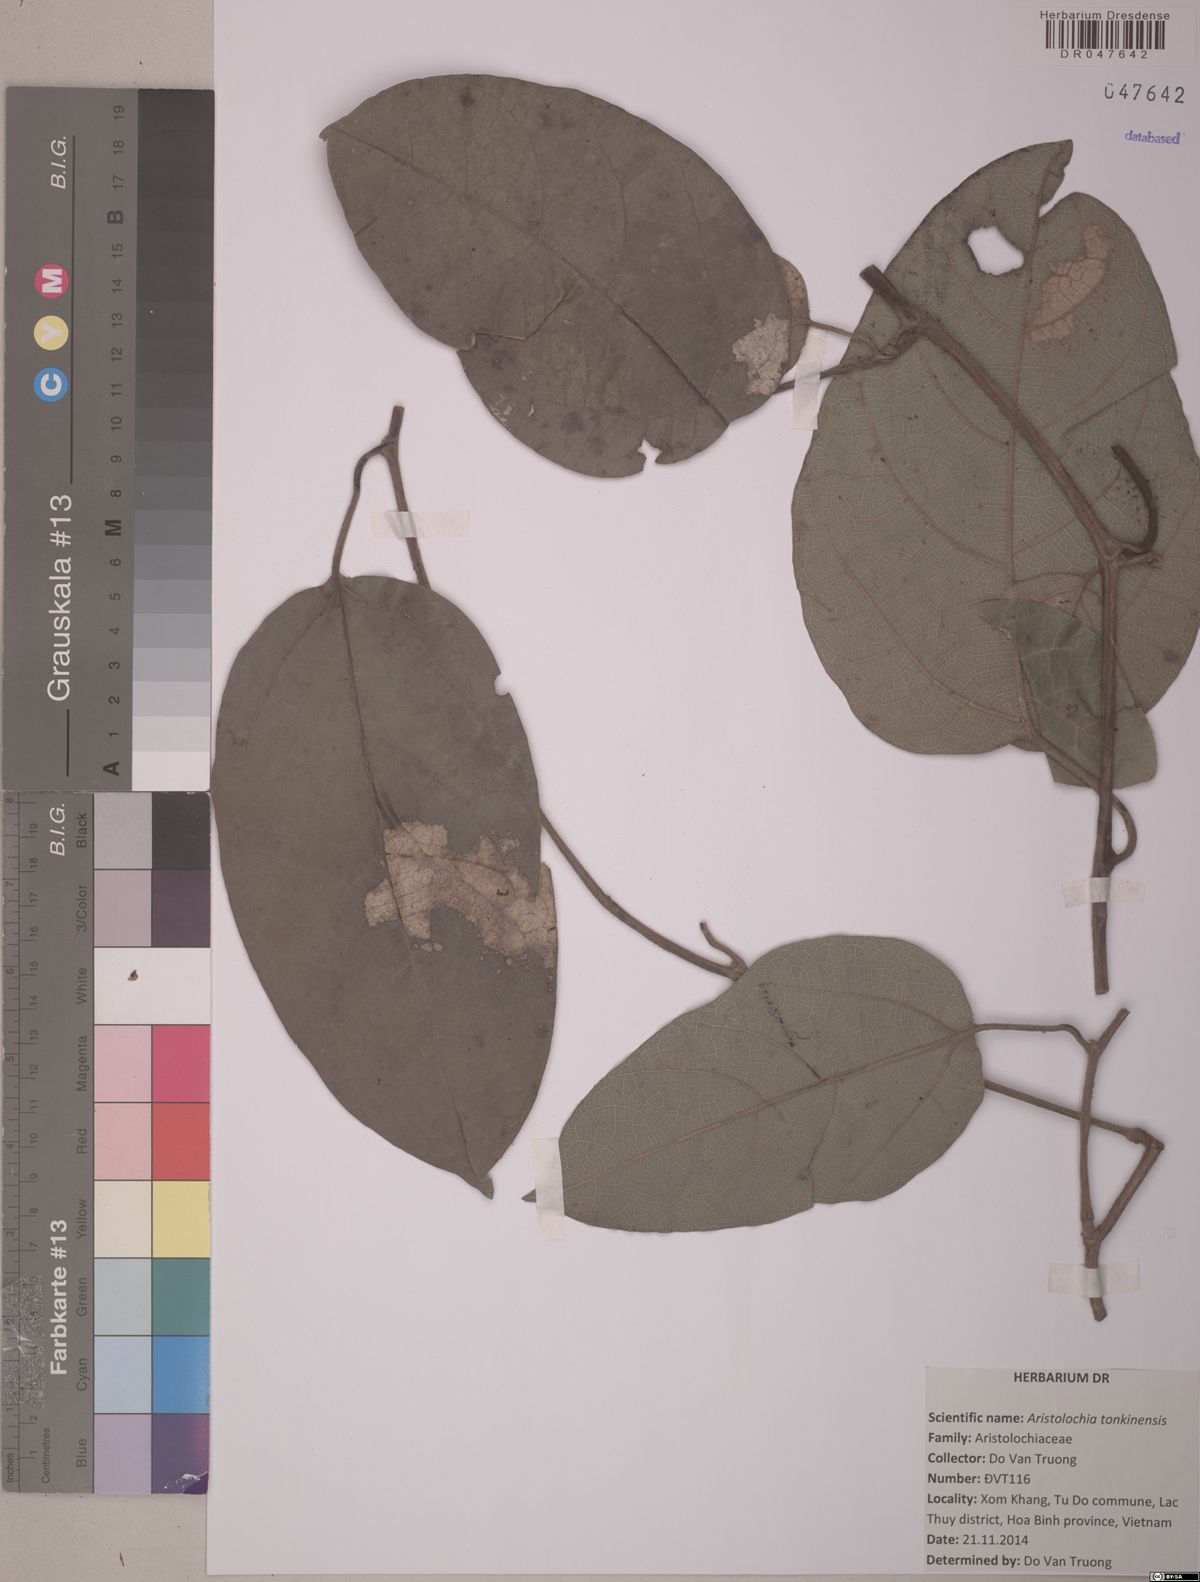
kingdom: Plantae
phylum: Tracheophyta
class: Magnoliopsida
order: Piperales
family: Aristolochiaceae
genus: Isotrema
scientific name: Isotrema tonkinense
